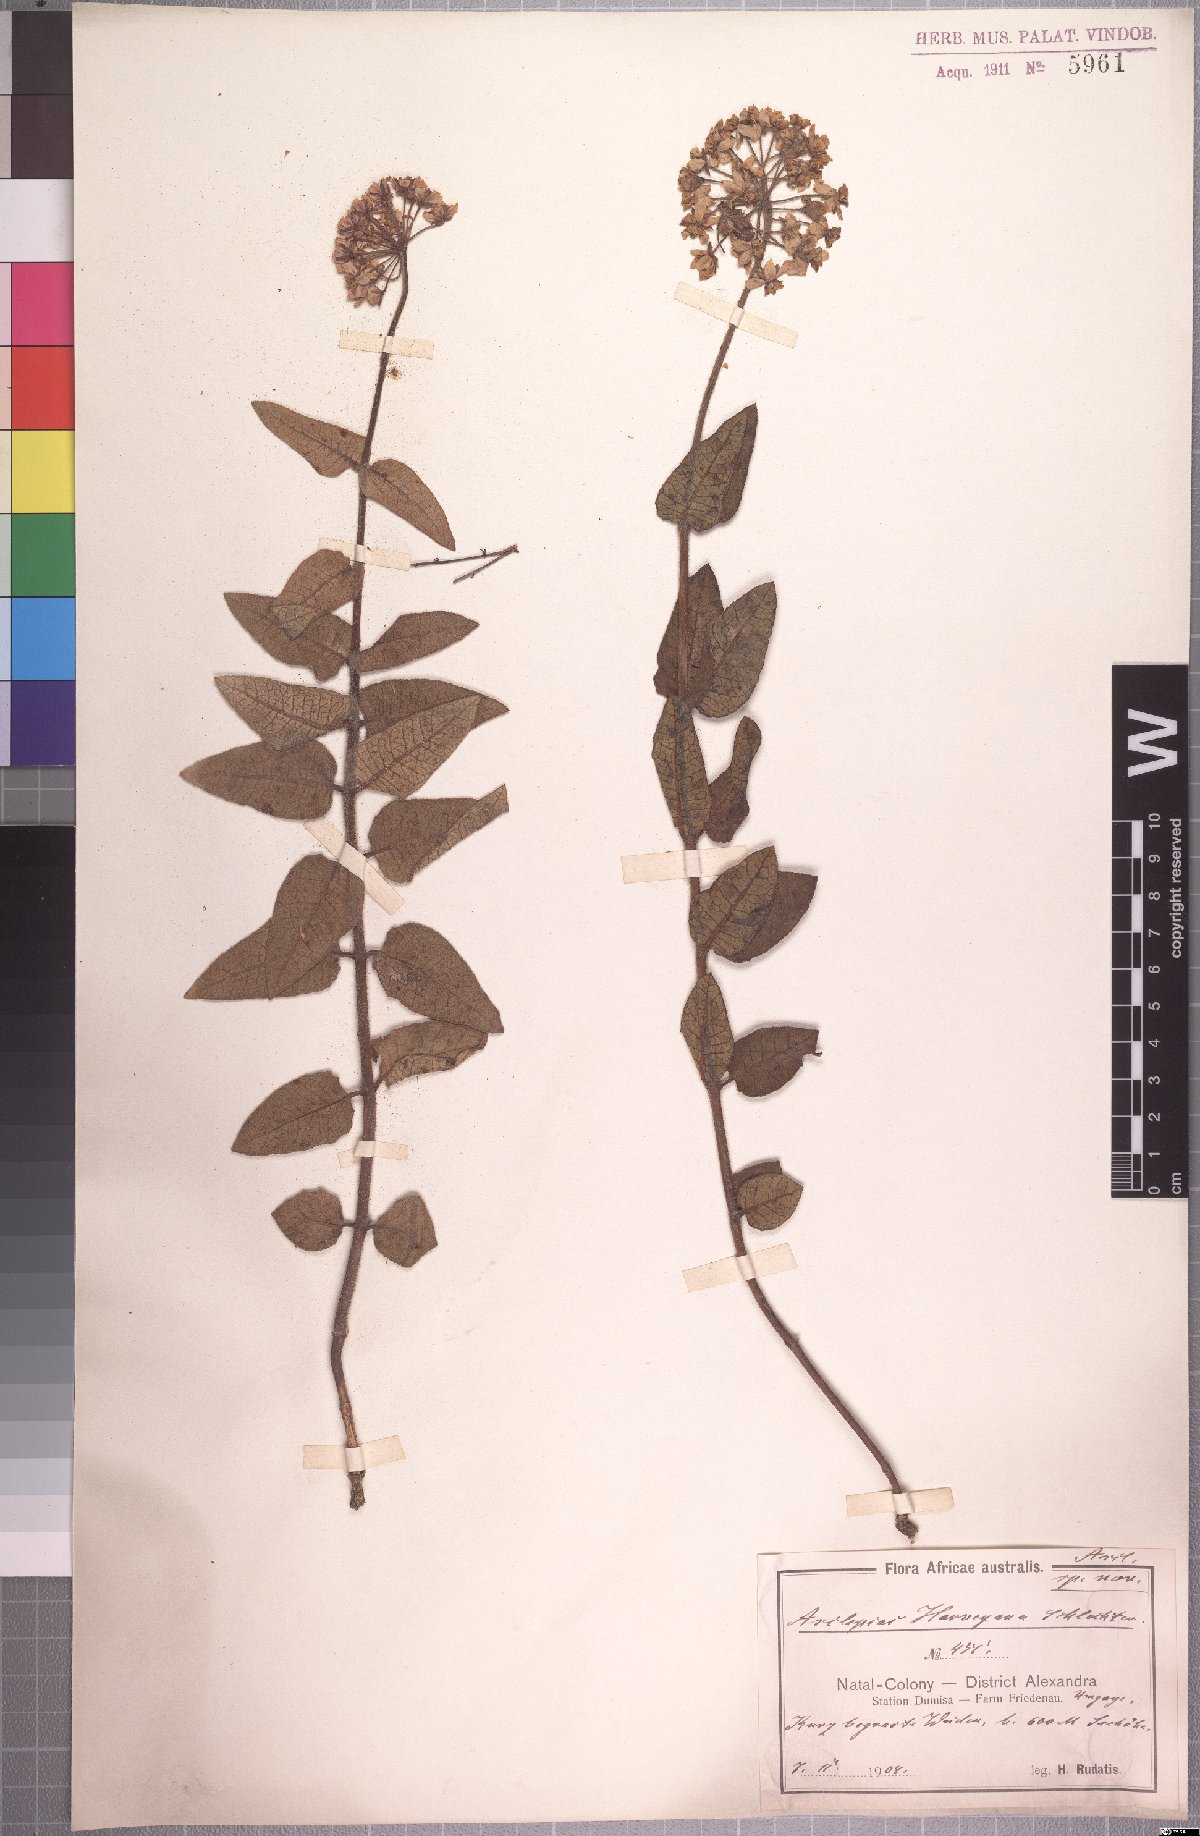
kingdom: Plantae
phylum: Tracheophyta
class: Magnoliopsida
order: Gentianales
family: Apocynaceae
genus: Xysmalobium
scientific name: Xysmalobium prunelloides
